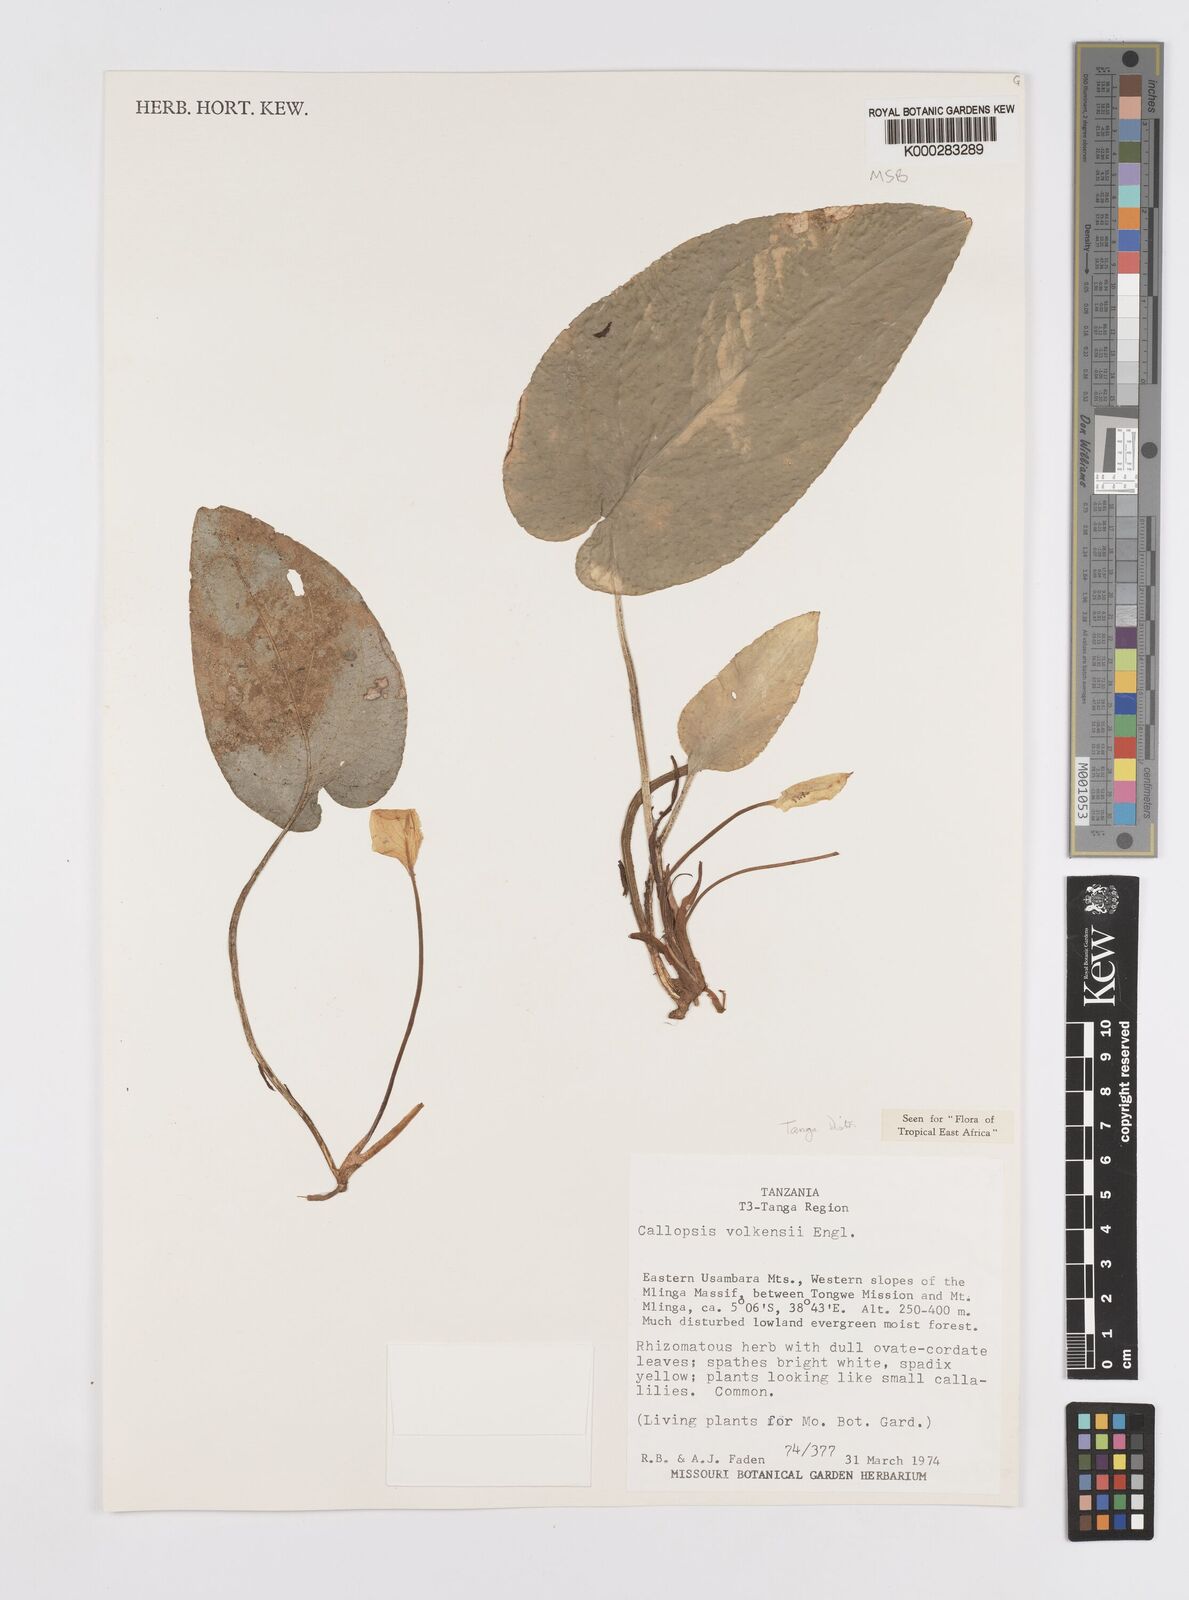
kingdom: Plantae
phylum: Tracheophyta
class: Liliopsida
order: Alismatales
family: Araceae
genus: Callopsis
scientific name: Callopsis volkensii
